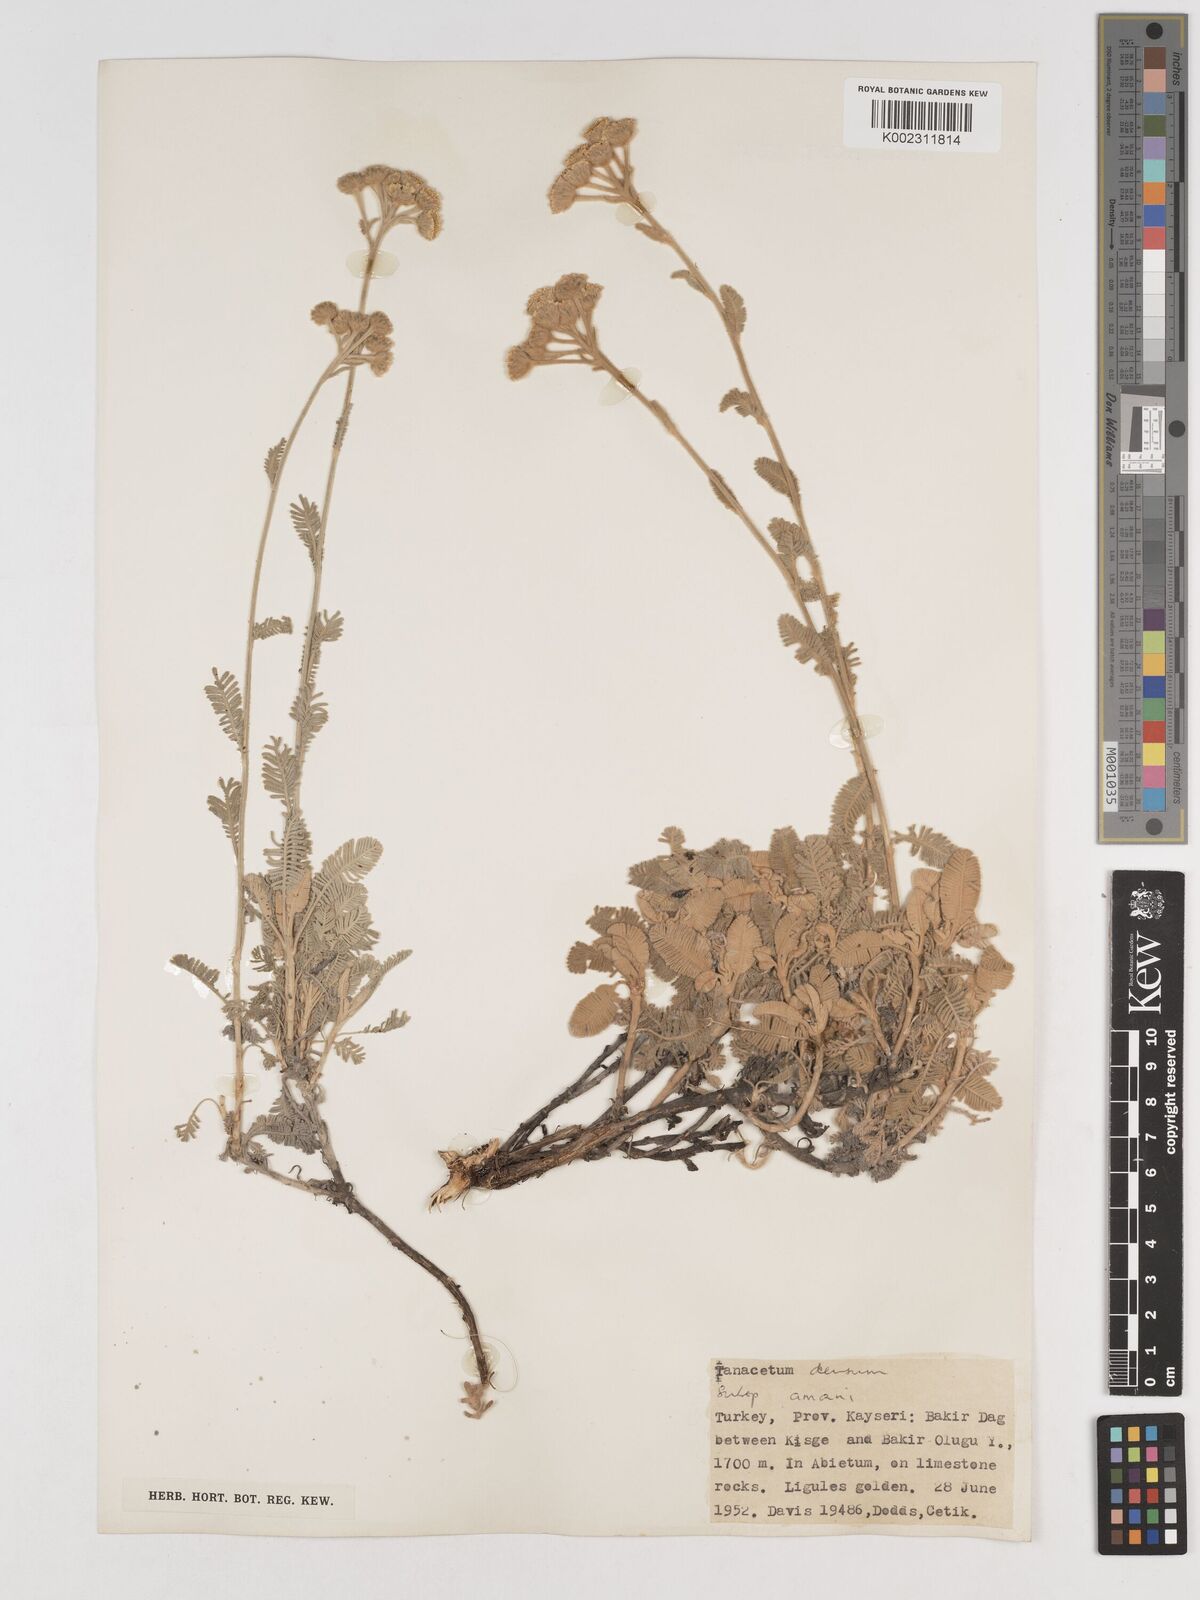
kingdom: Plantae
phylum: Tracheophyta
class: Magnoliopsida
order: Asterales
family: Asteraceae
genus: Tanacetum
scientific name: Tanacetum densum
